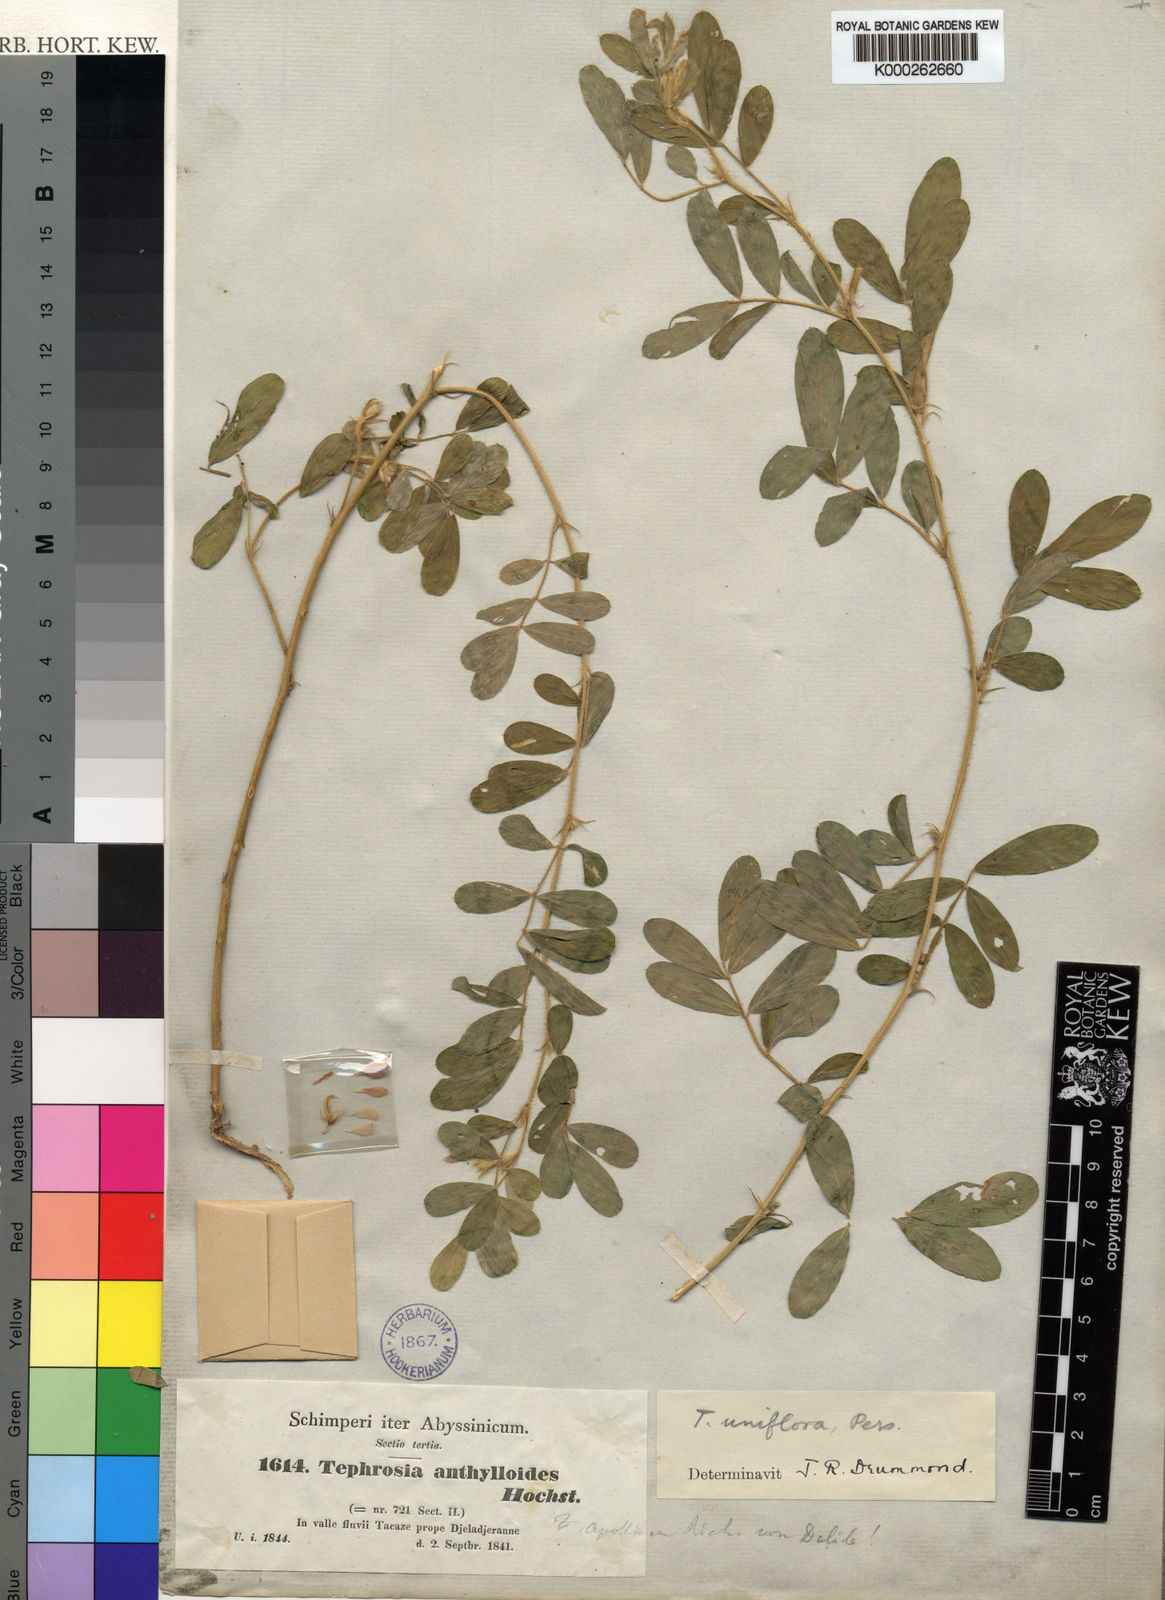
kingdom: Plantae
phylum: Tracheophyta
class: Magnoliopsida
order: Fabales
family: Fabaceae
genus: Tephrosia
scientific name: Tephrosia uniflora
